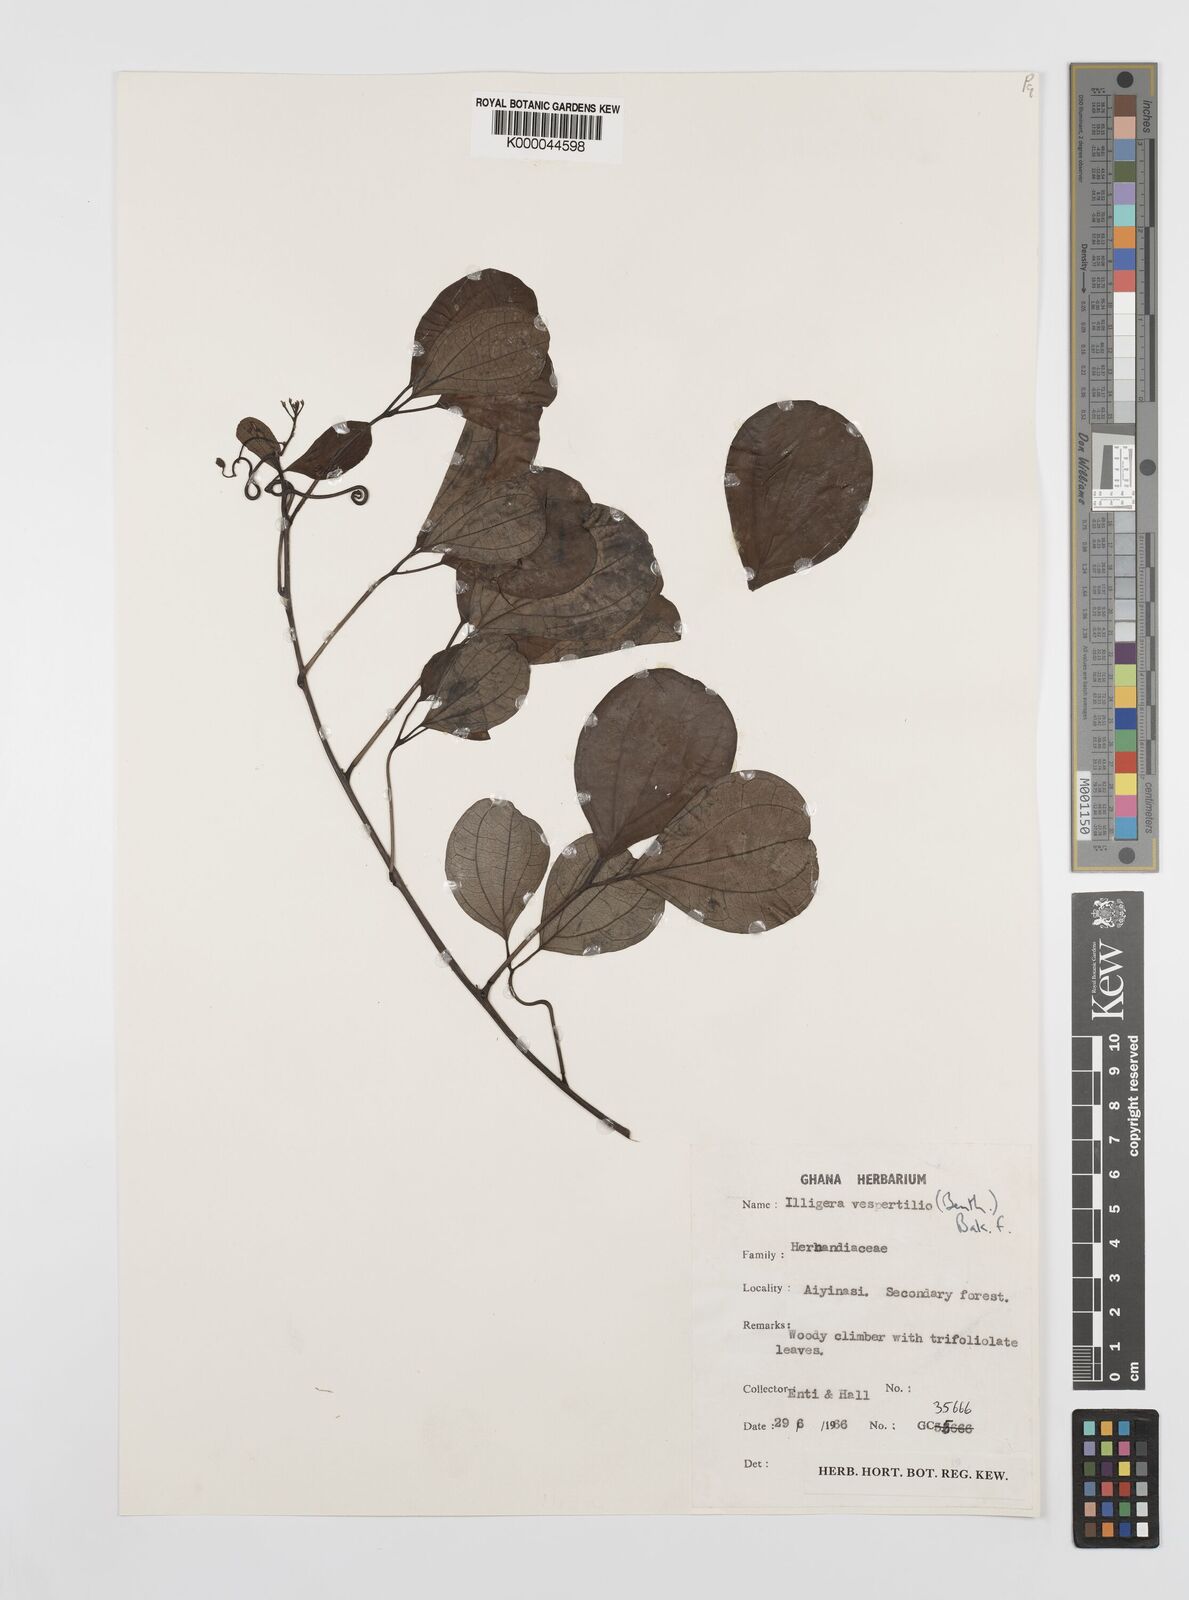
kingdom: Plantae
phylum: Tracheophyta
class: Magnoliopsida
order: Laurales
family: Hernandiaceae
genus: Illigera
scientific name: Illigera
